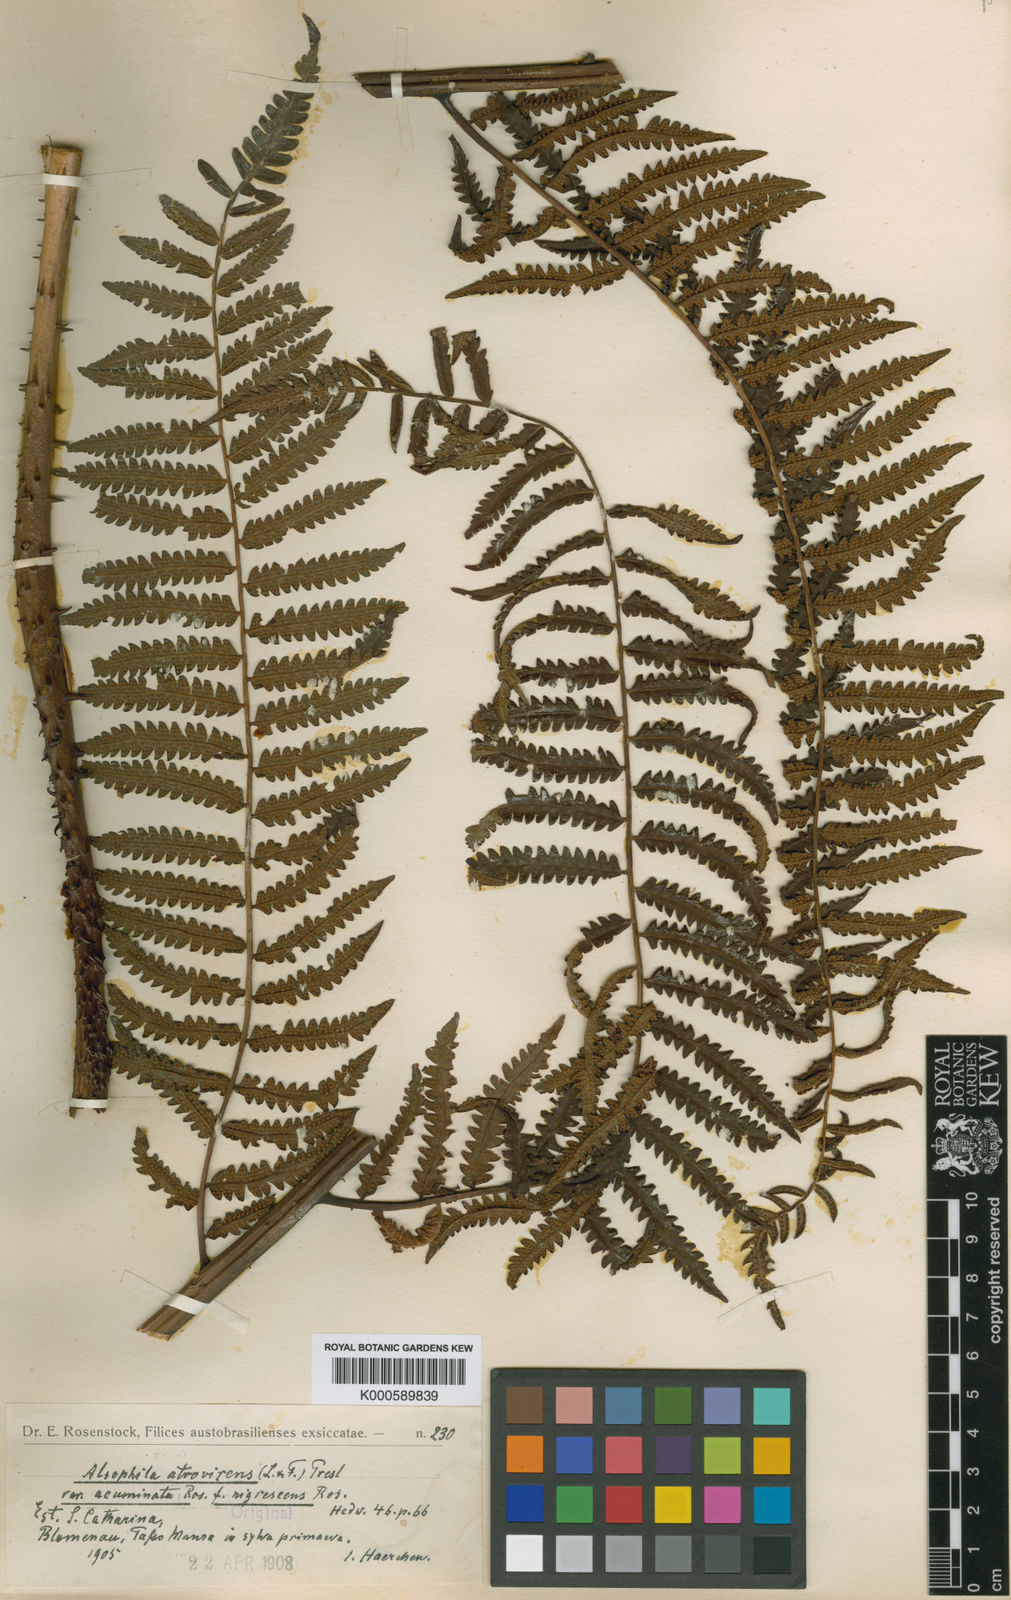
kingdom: Plantae
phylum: Tracheophyta
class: Polypodiopsida
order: Cyatheales
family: Cyatheaceae
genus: Cyathea
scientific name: Cyathea atrovirens
